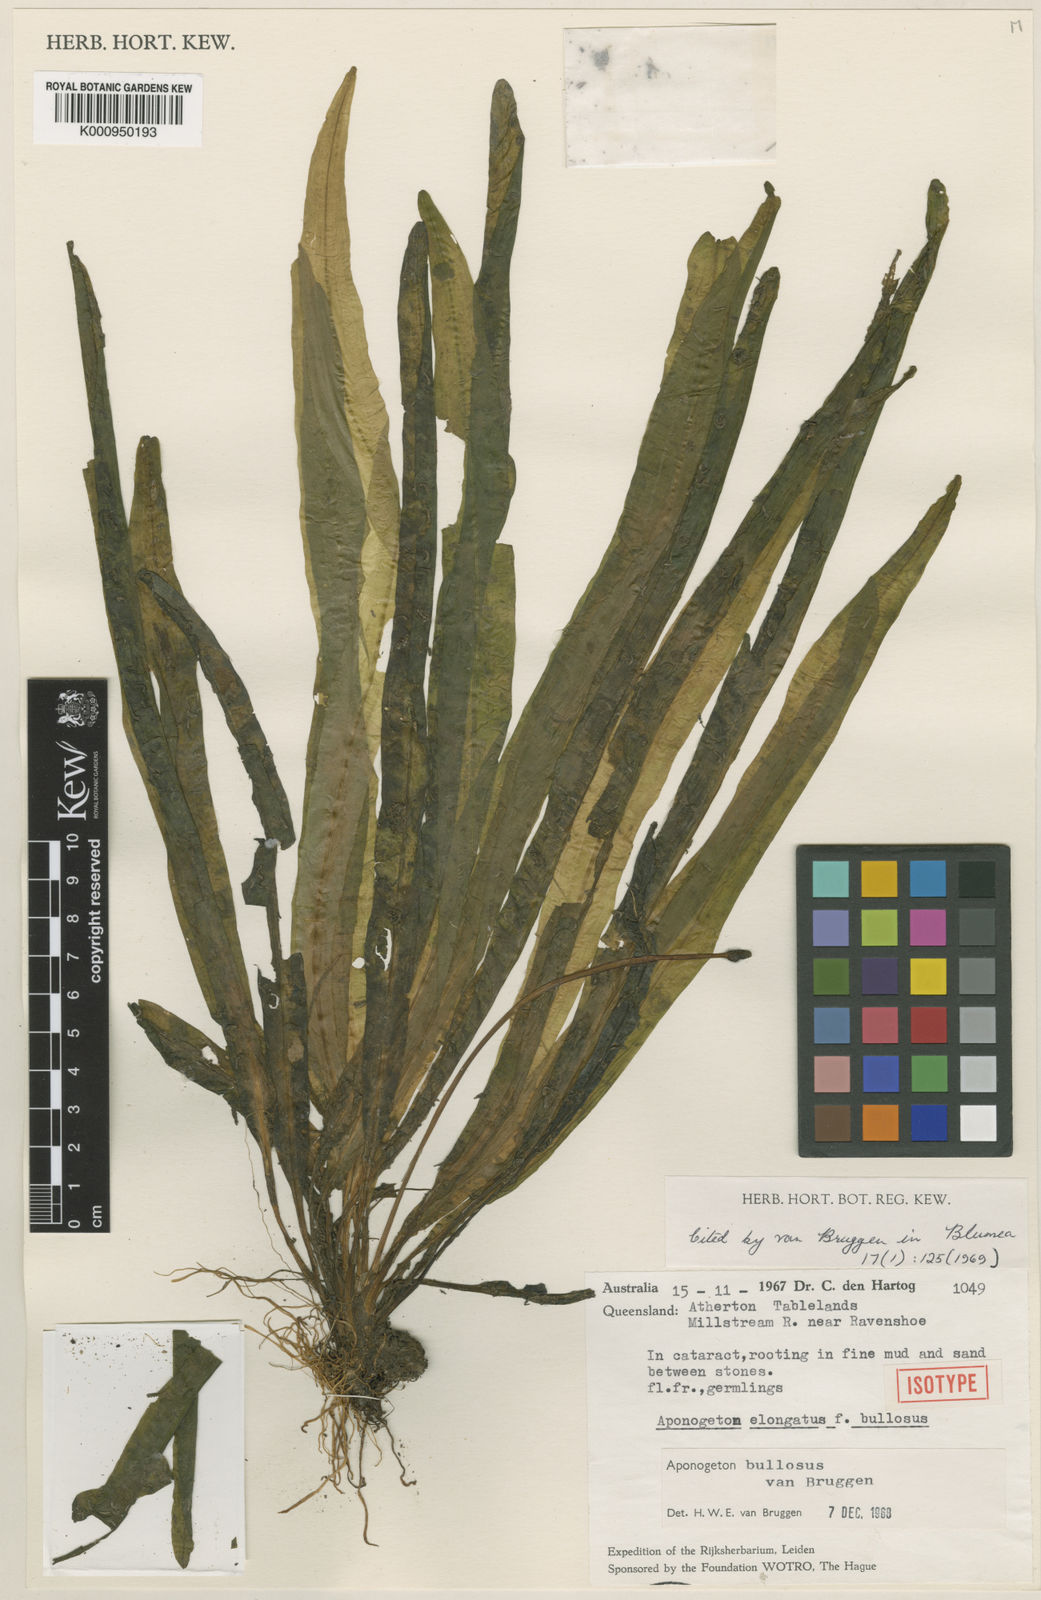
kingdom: Plantae
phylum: Tracheophyta
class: Liliopsida
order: Alismatales
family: Aponogetonaceae
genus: Aponogeton
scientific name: Aponogeton bullosus
